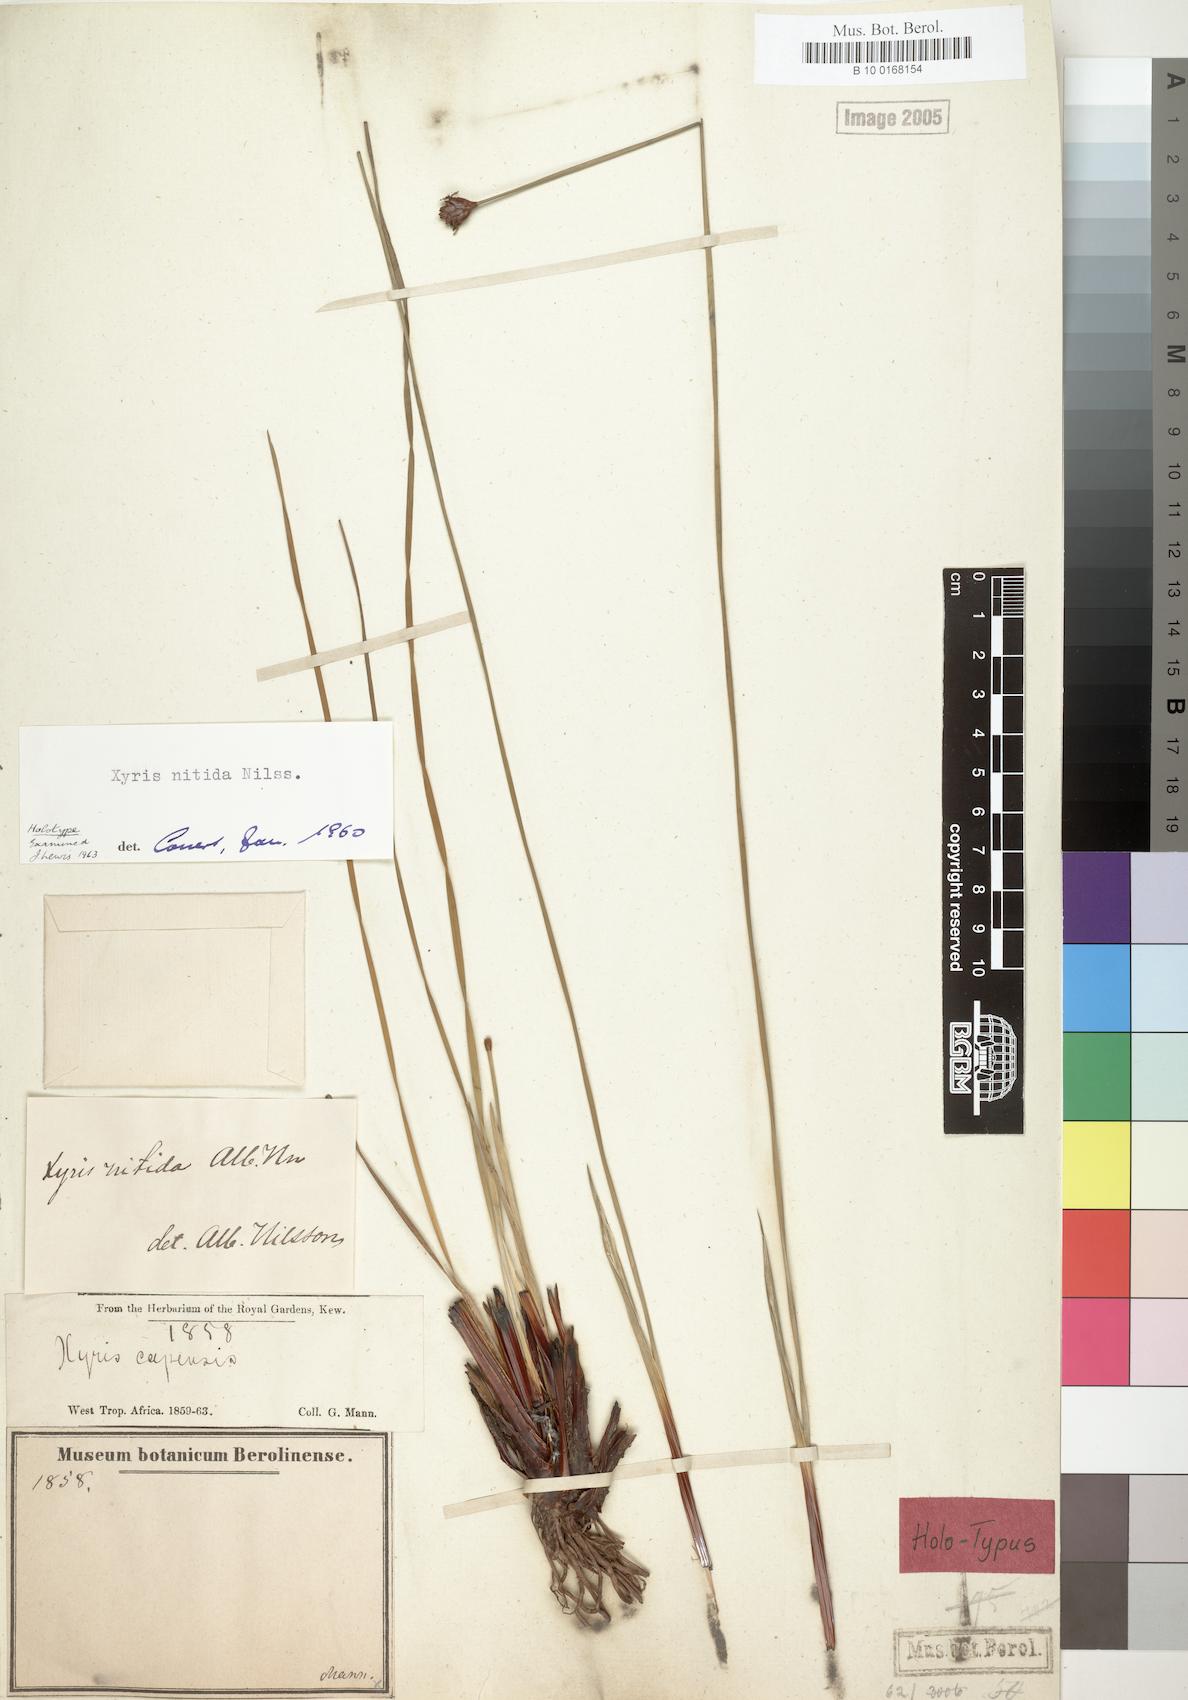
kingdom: Plantae
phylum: Tracheophyta
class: Liliopsida
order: Poales
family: Xyridaceae
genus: Xyris
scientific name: Xyris congensis
